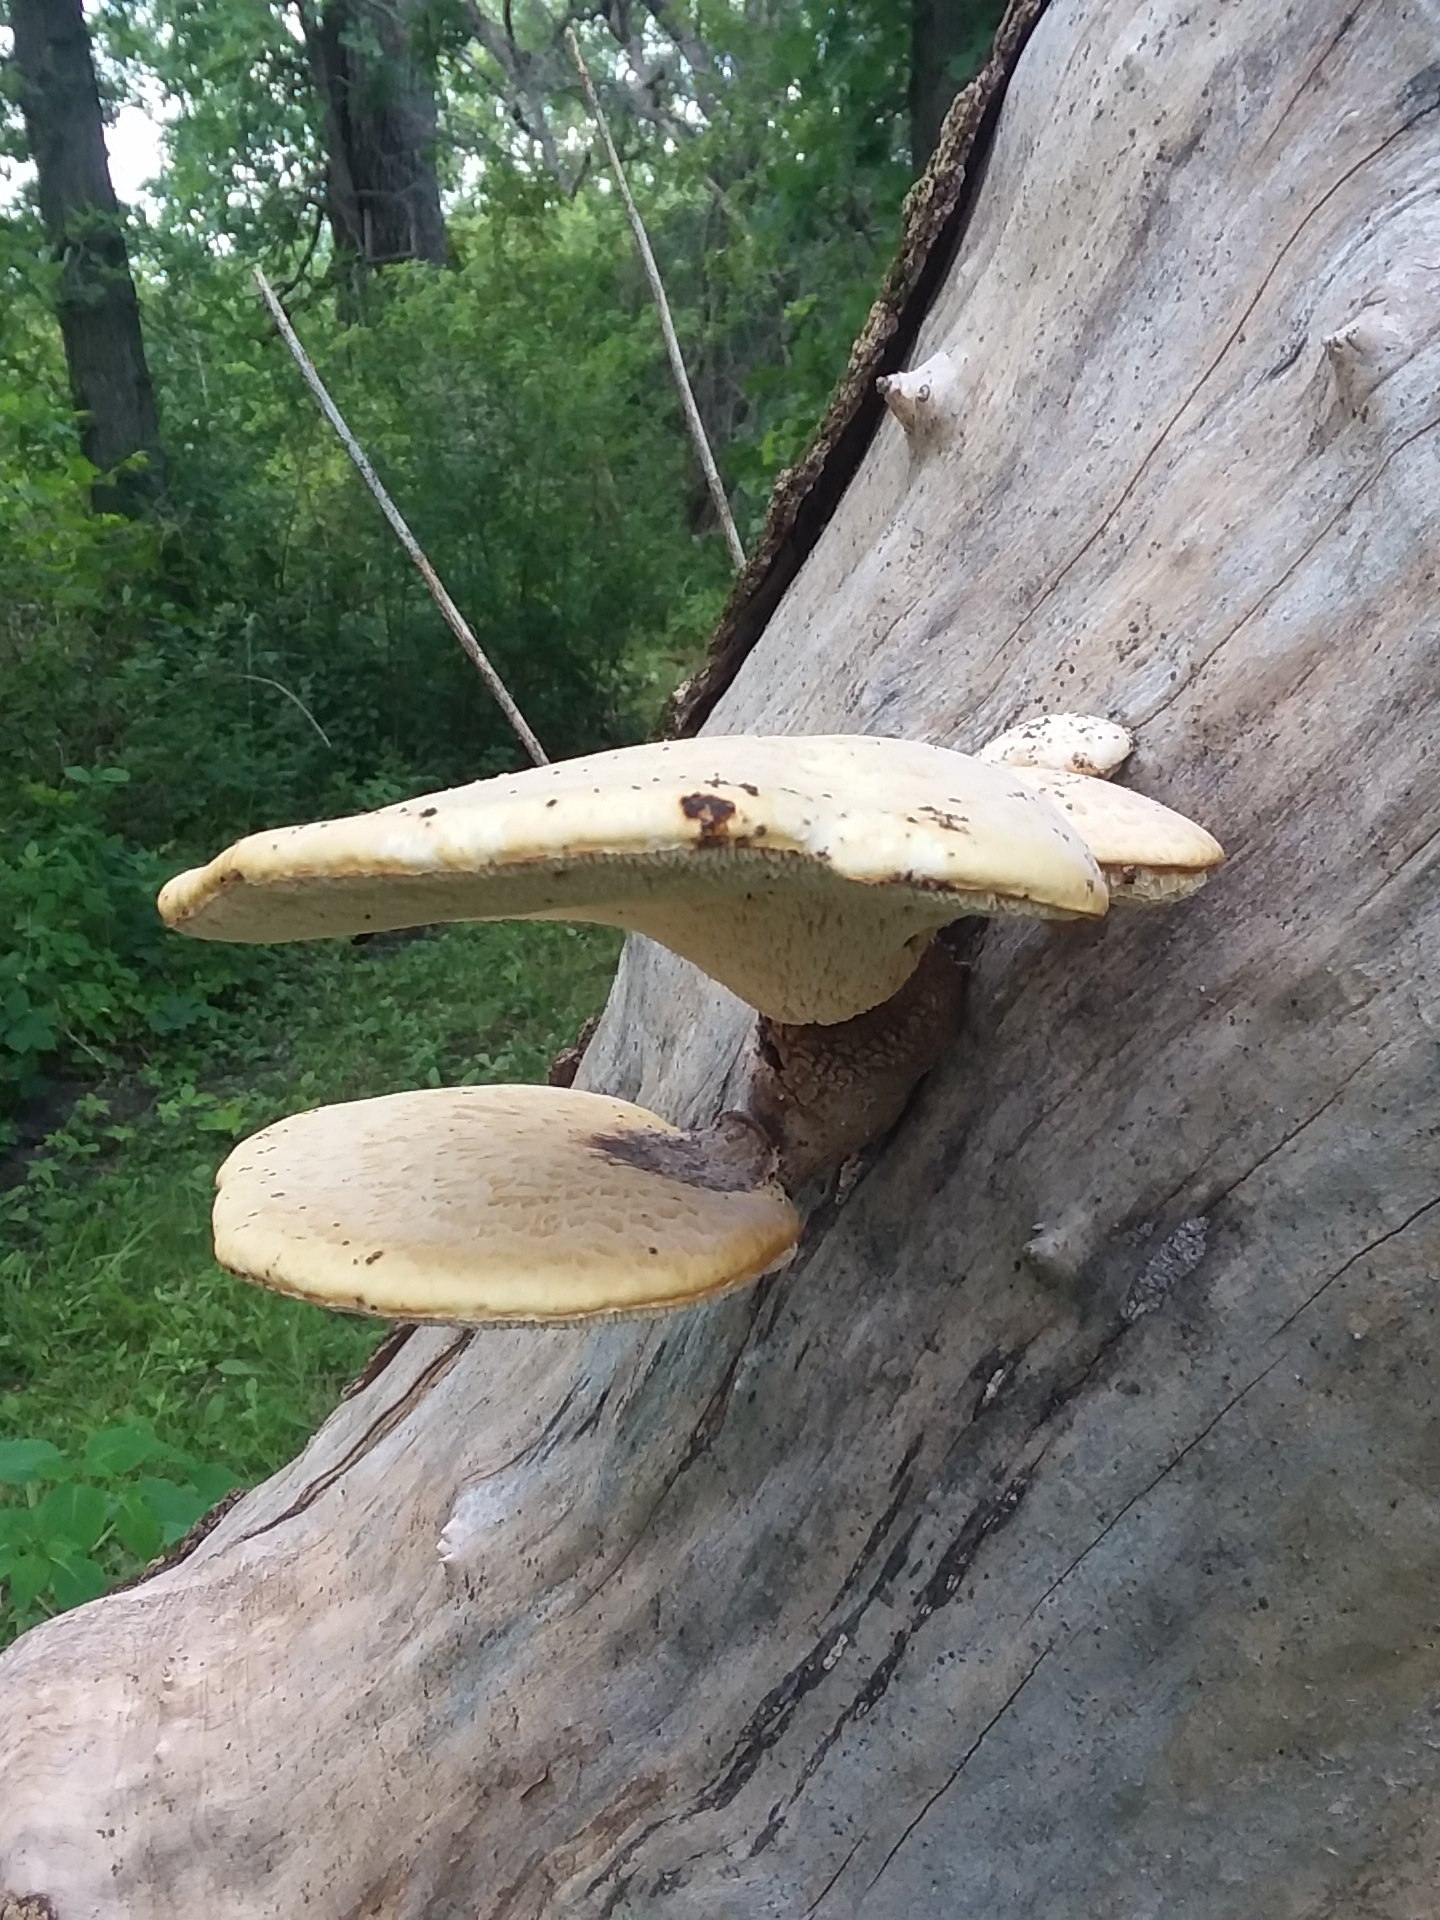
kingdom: Fungi
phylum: Basidiomycota
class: Agaricomycetes
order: Polyporales
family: Polyporaceae
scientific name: Polyporaceae
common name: poresvampfamilien
